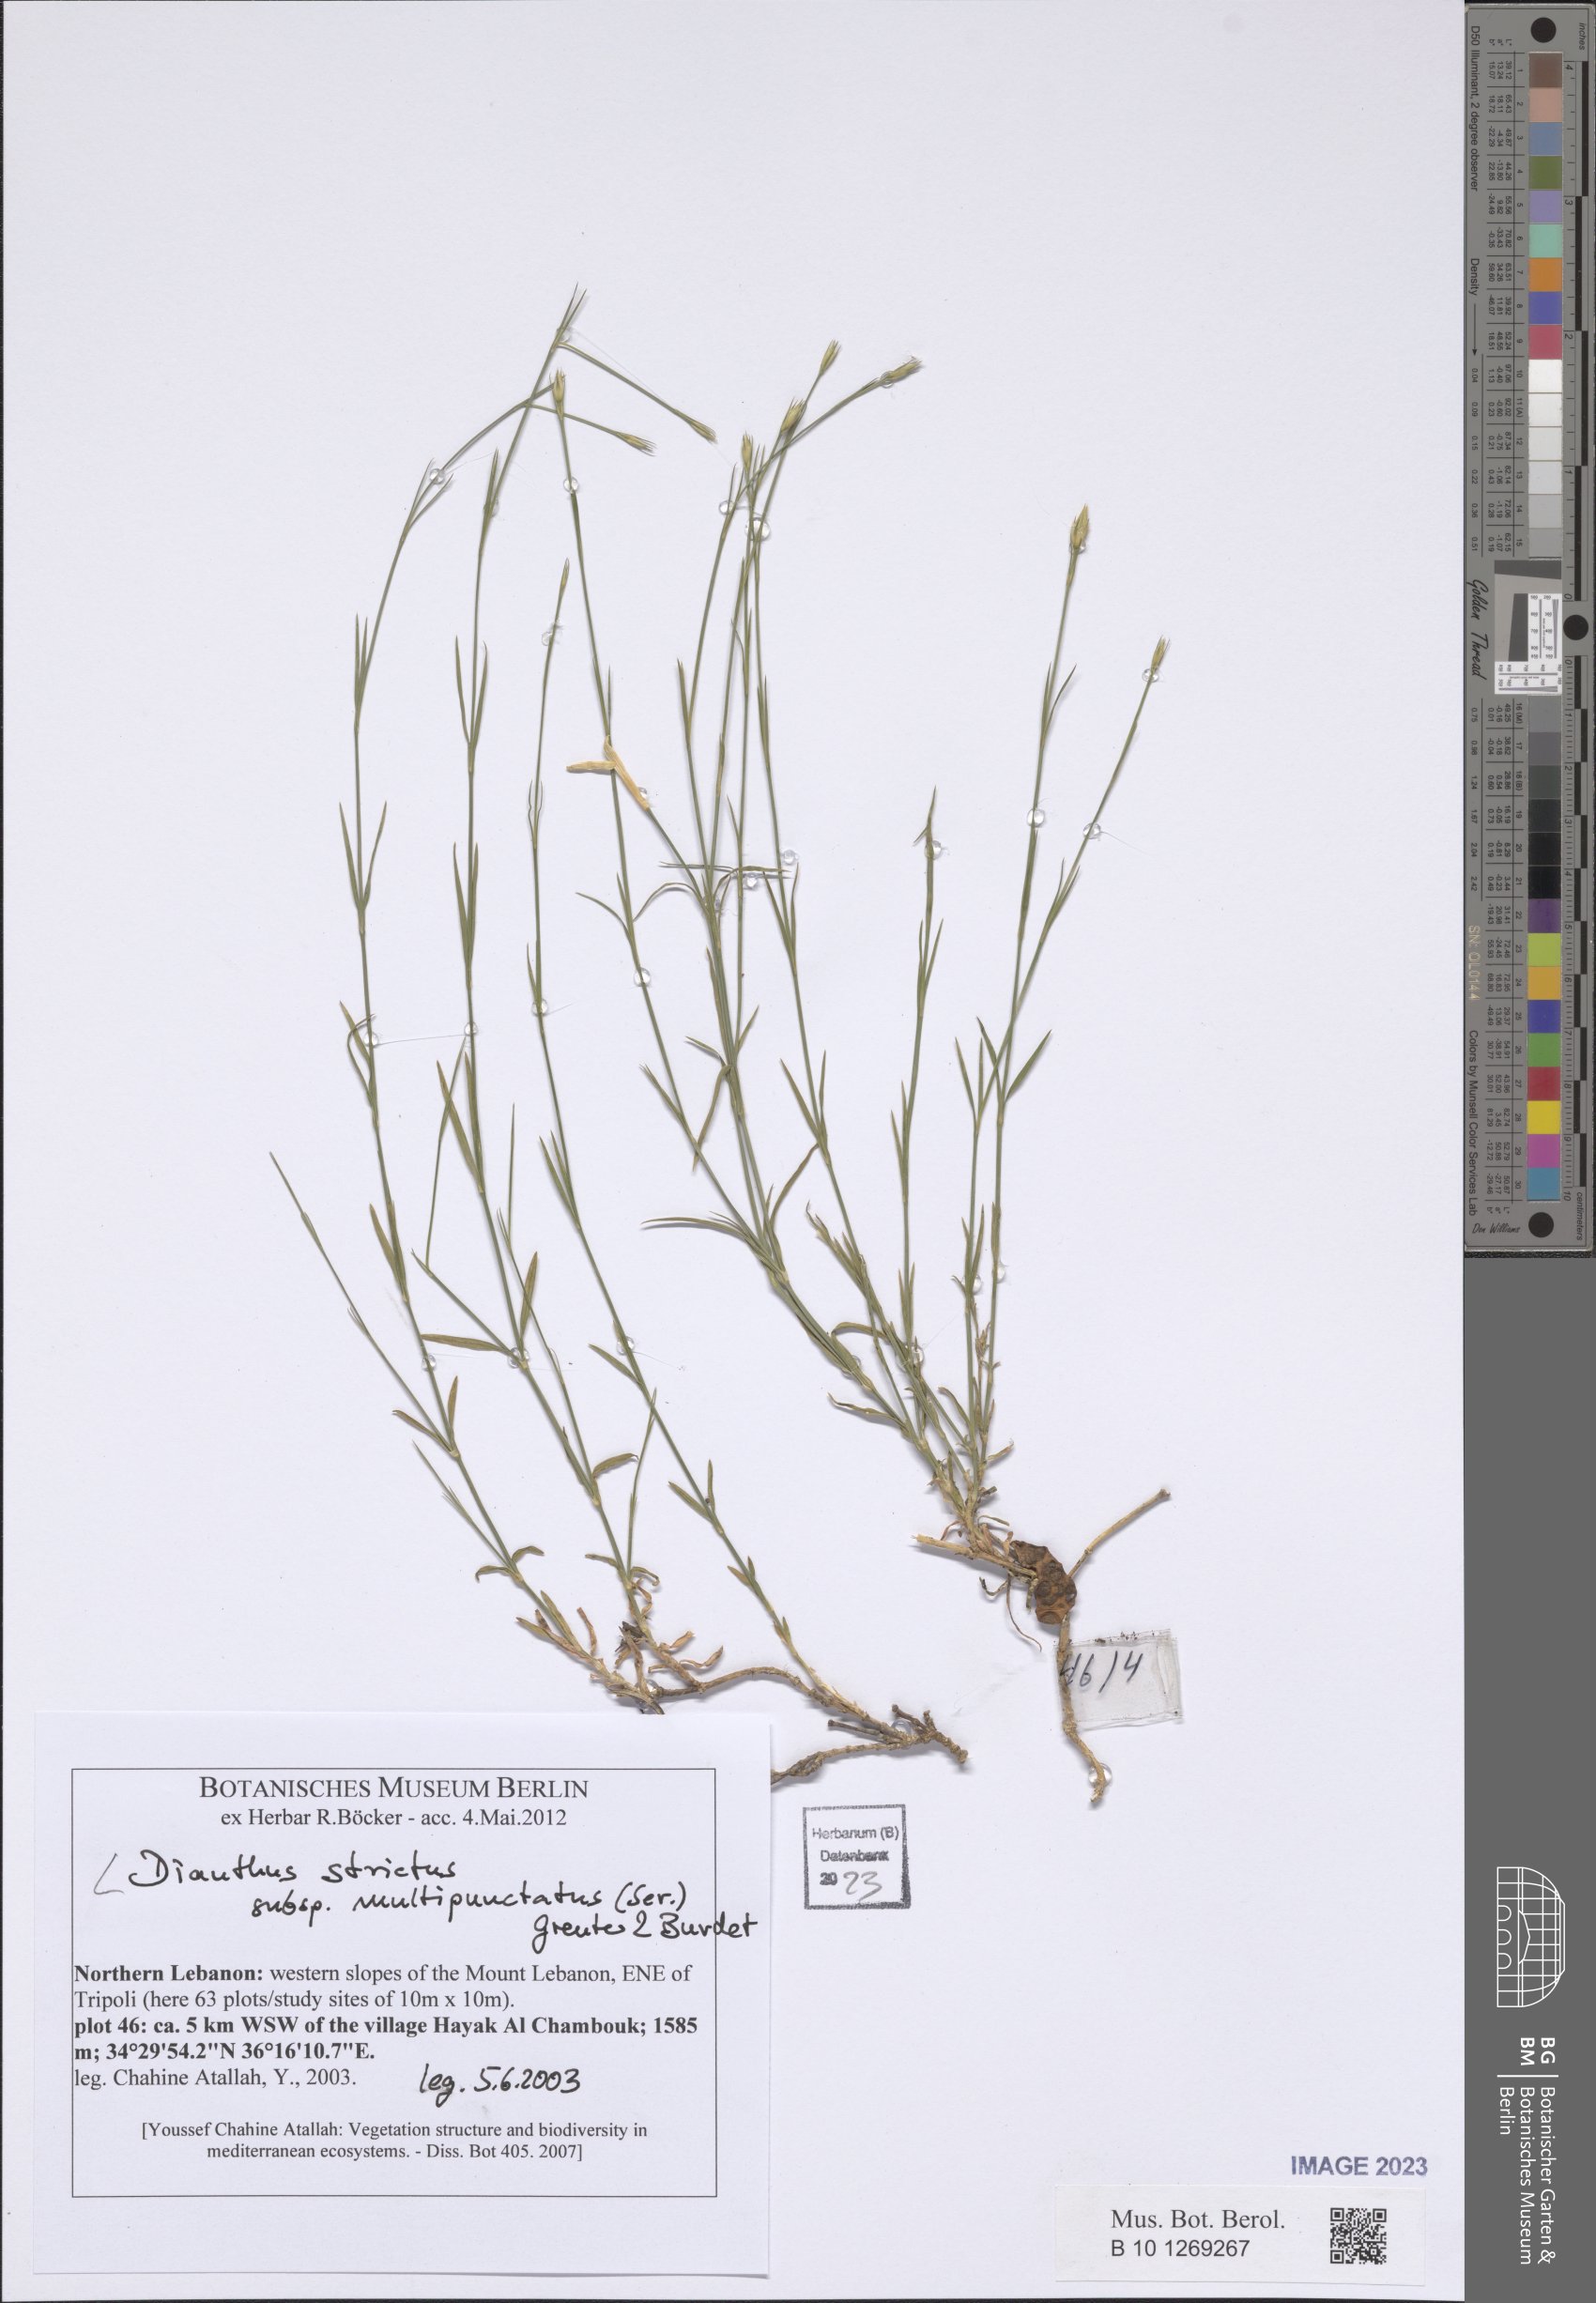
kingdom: Plantae
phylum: Tracheophyta
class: Magnoliopsida
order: Caryophyllales
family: Caryophyllaceae
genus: Dianthus
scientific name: Dianthus strictus
